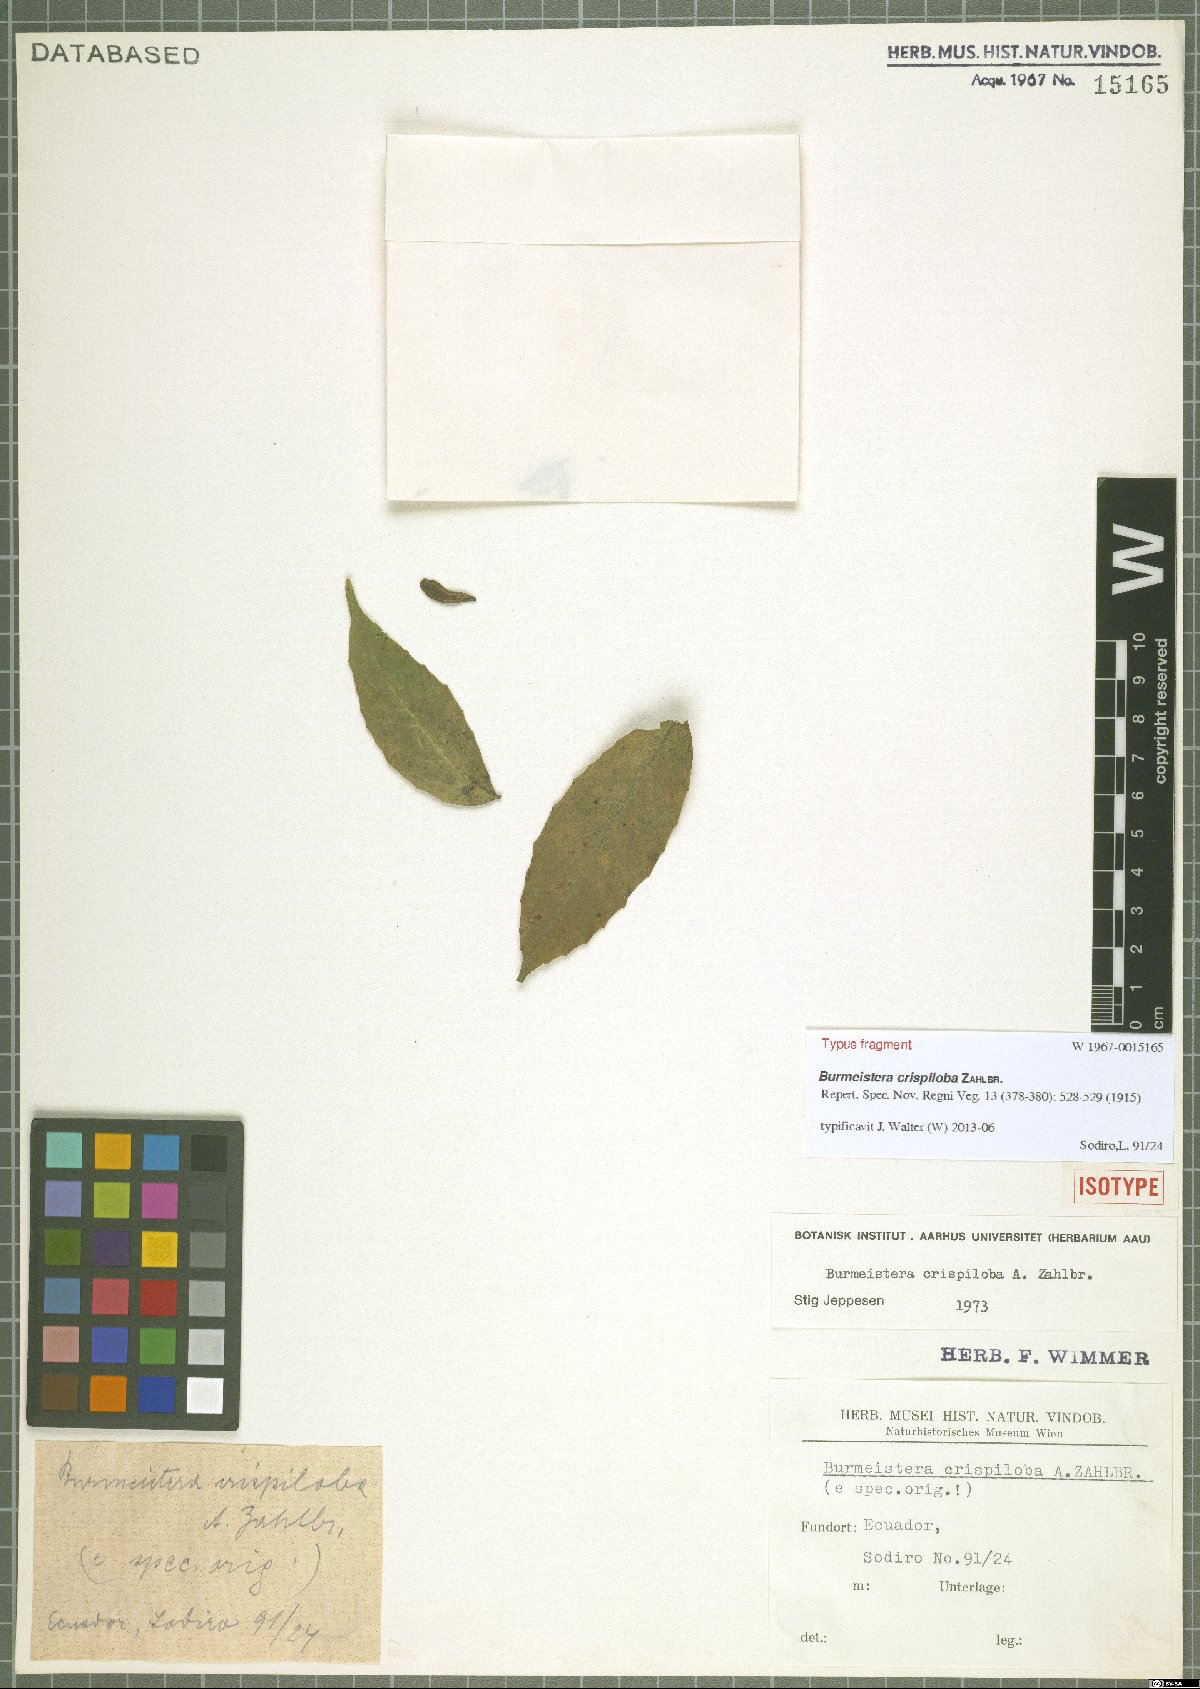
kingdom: Plantae
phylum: Tracheophyta
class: Magnoliopsida
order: Asterales
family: Campanulaceae
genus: Burmeistera
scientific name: Burmeistera crispiloba
